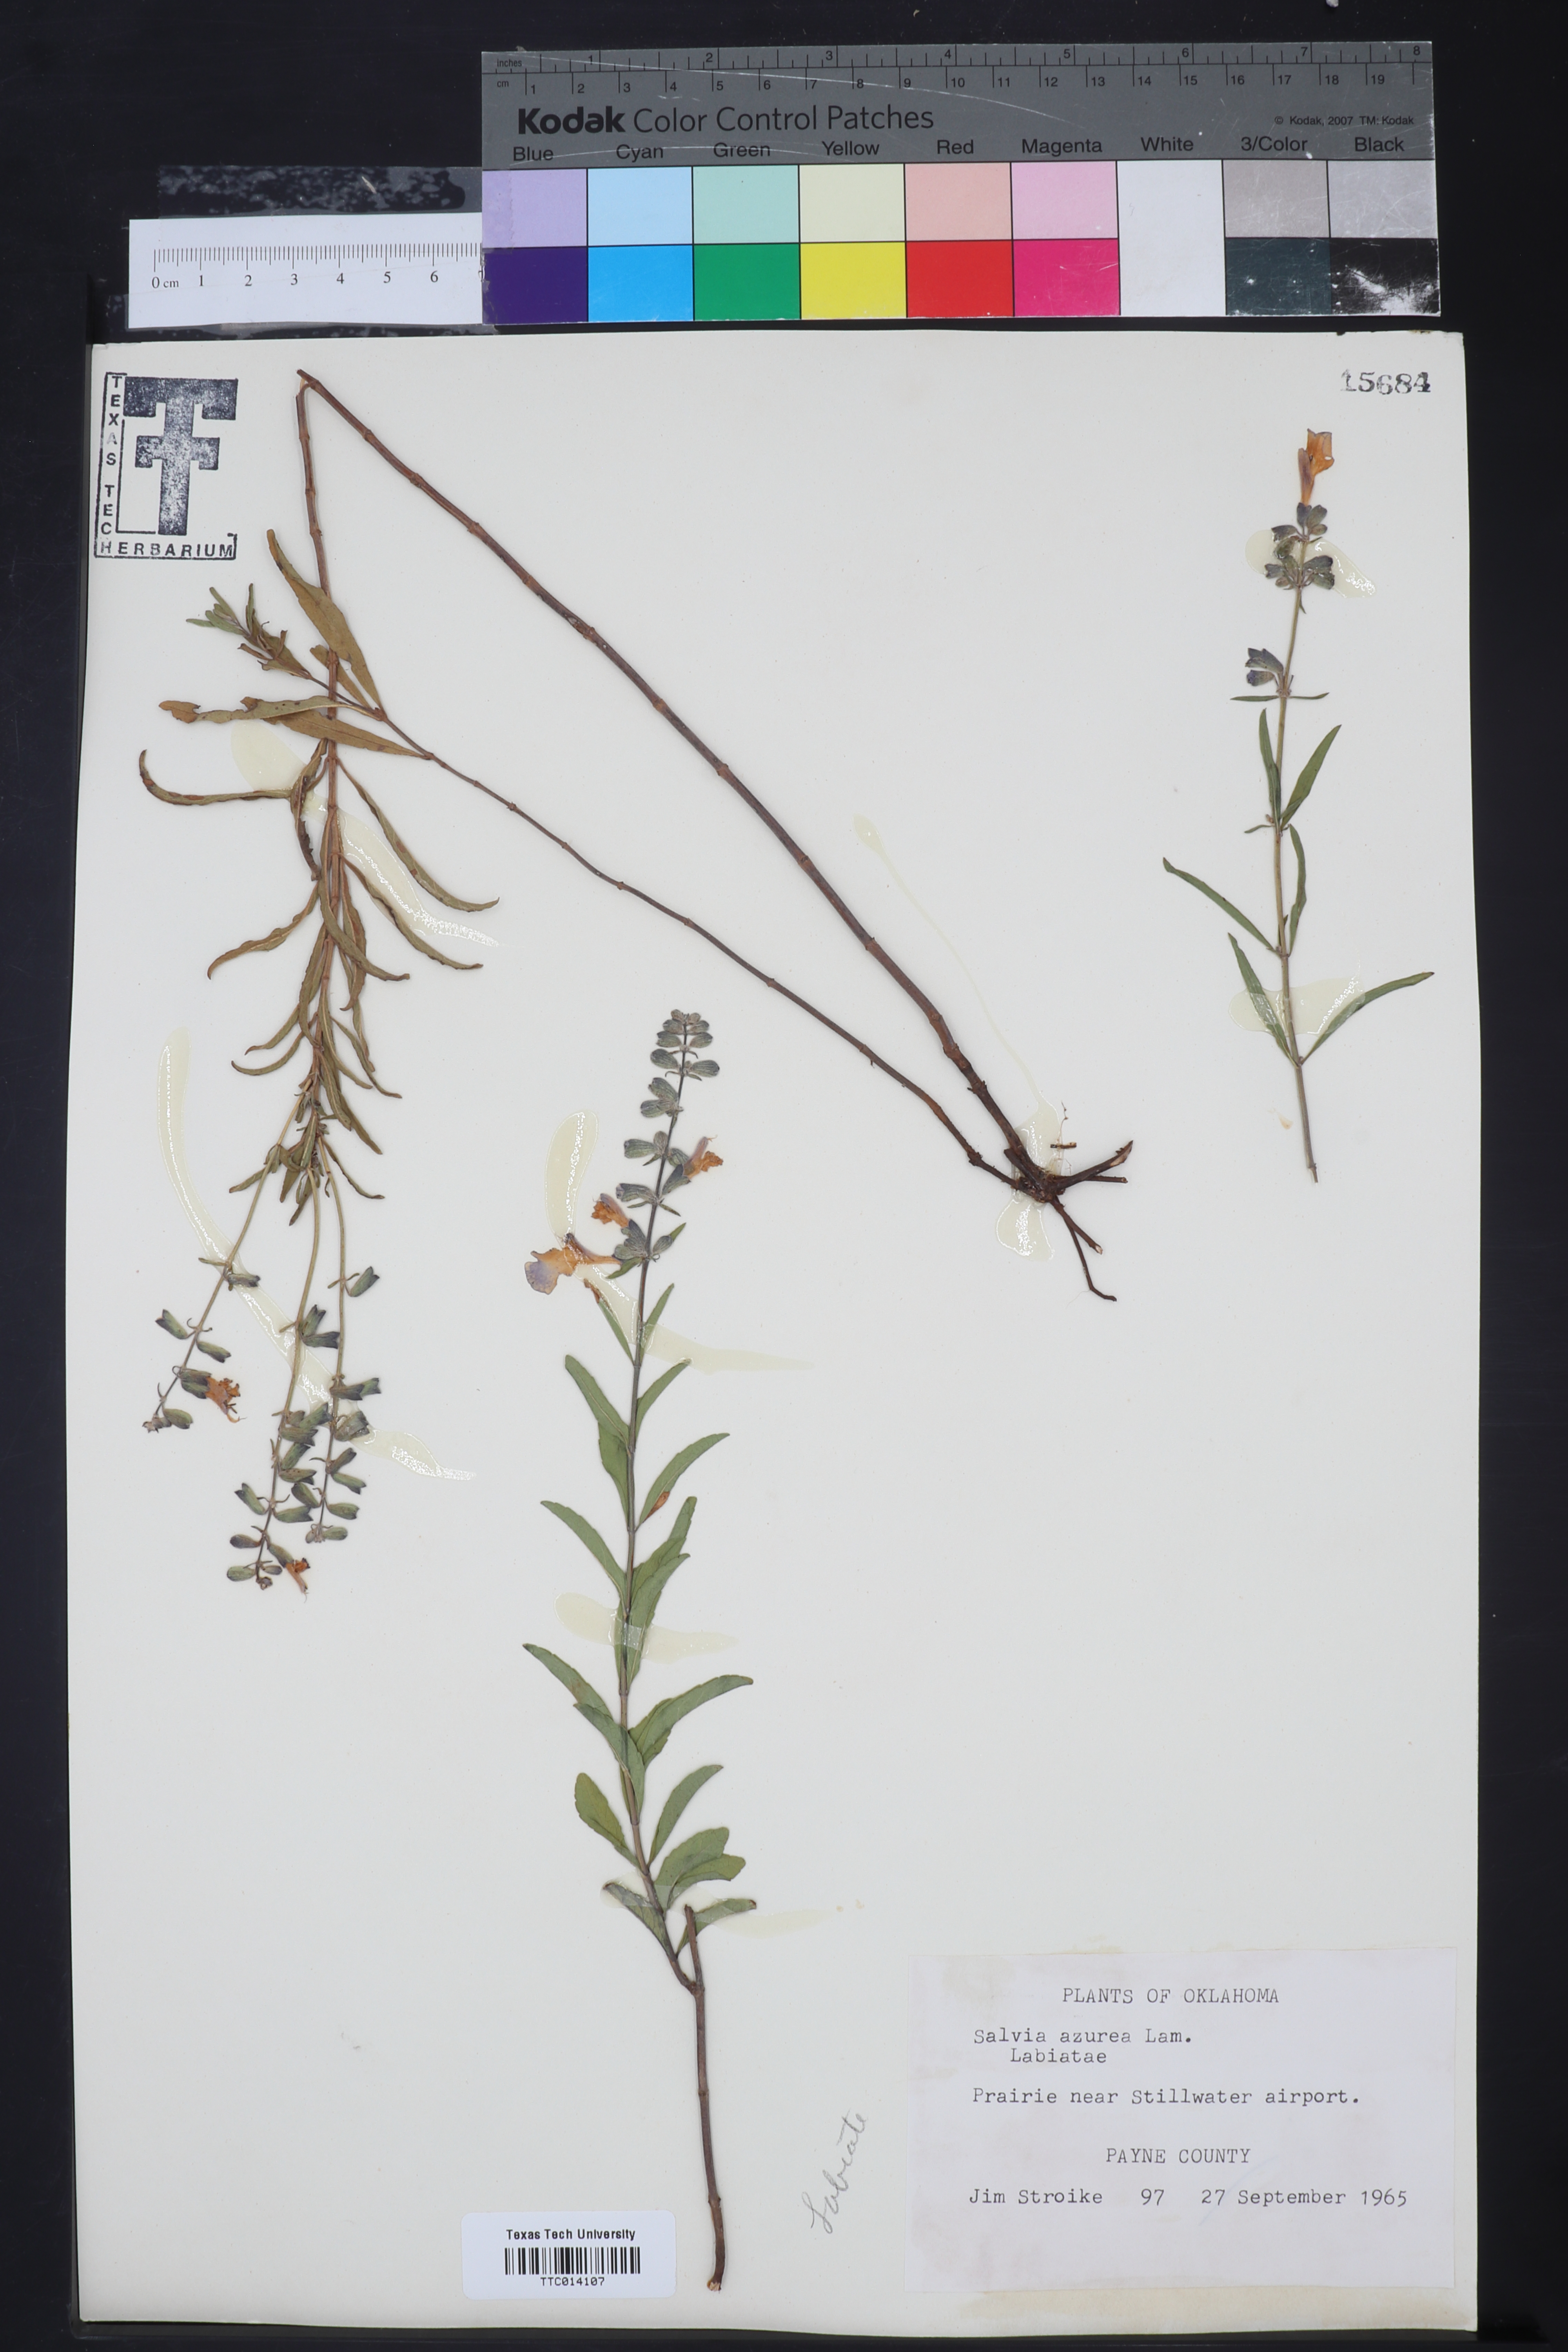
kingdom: Plantae
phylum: Tracheophyta
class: Magnoliopsida
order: Lamiales
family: Lamiaceae
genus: Salvia
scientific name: Salvia azurea
